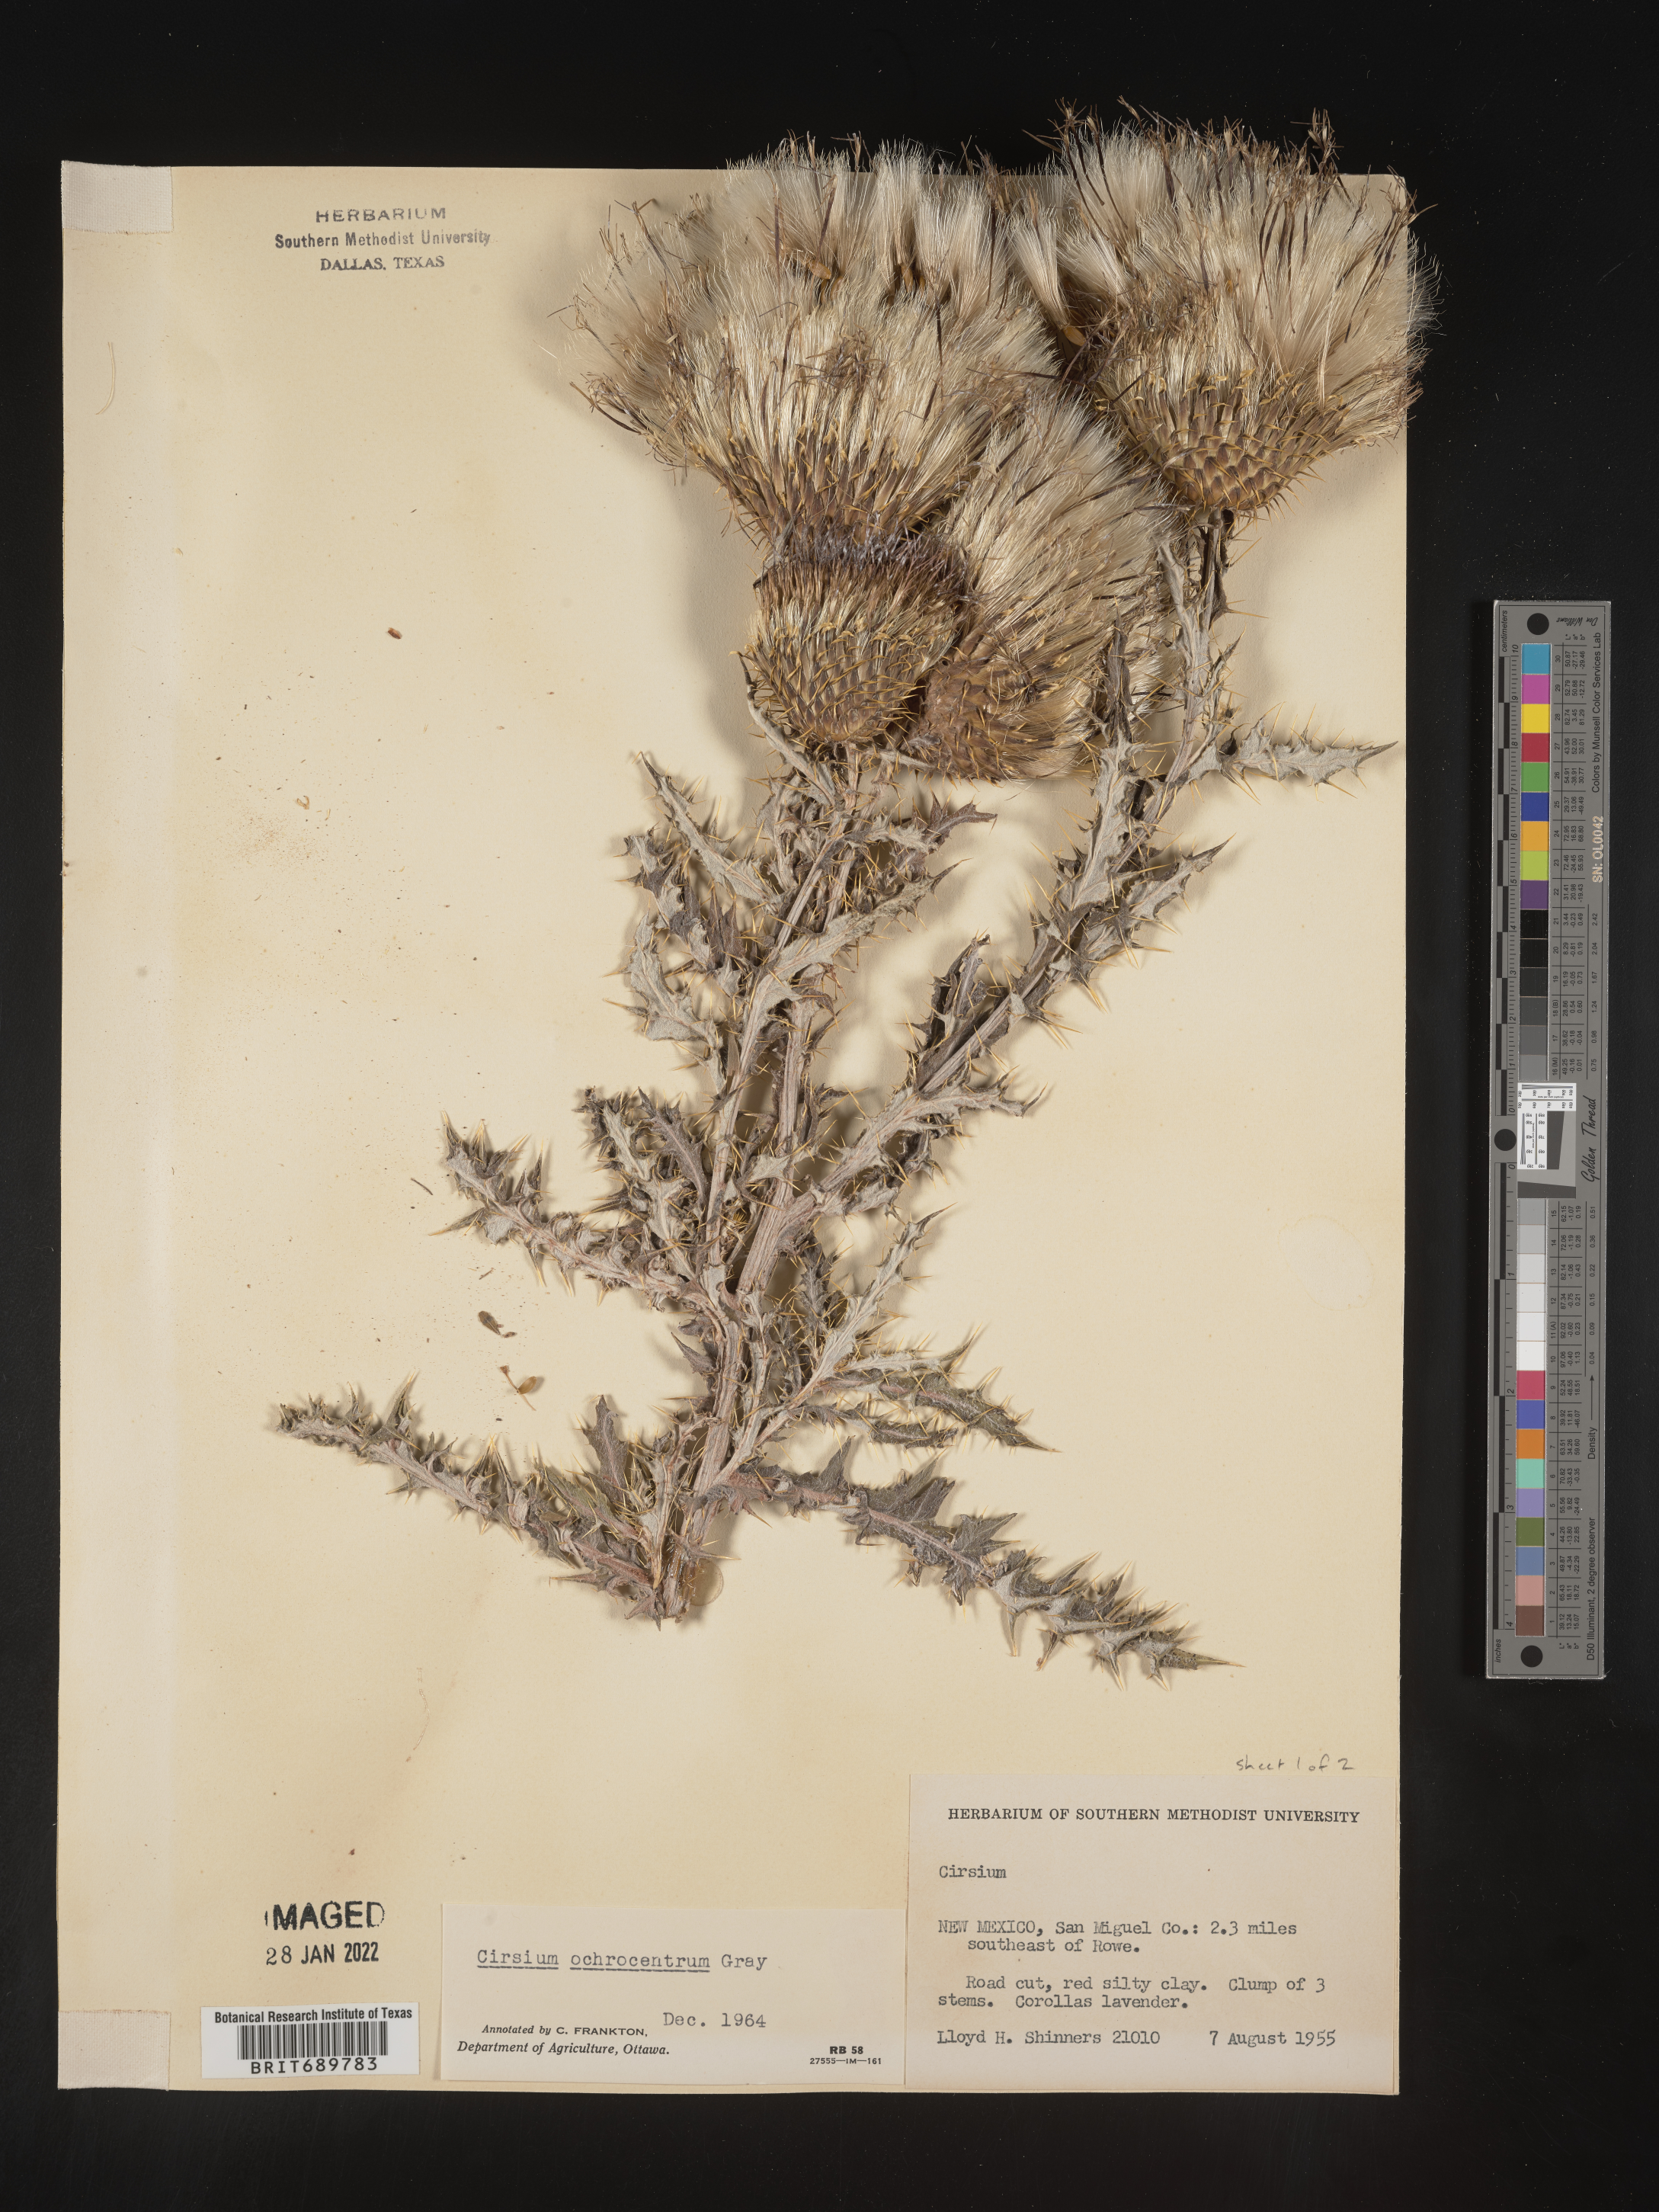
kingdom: Plantae
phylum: Tracheophyta
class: Magnoliopsida
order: Asterales
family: Asteraceae
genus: Cirsium
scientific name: Cirsium ochrocentrum
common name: Yellow-spine thistle
